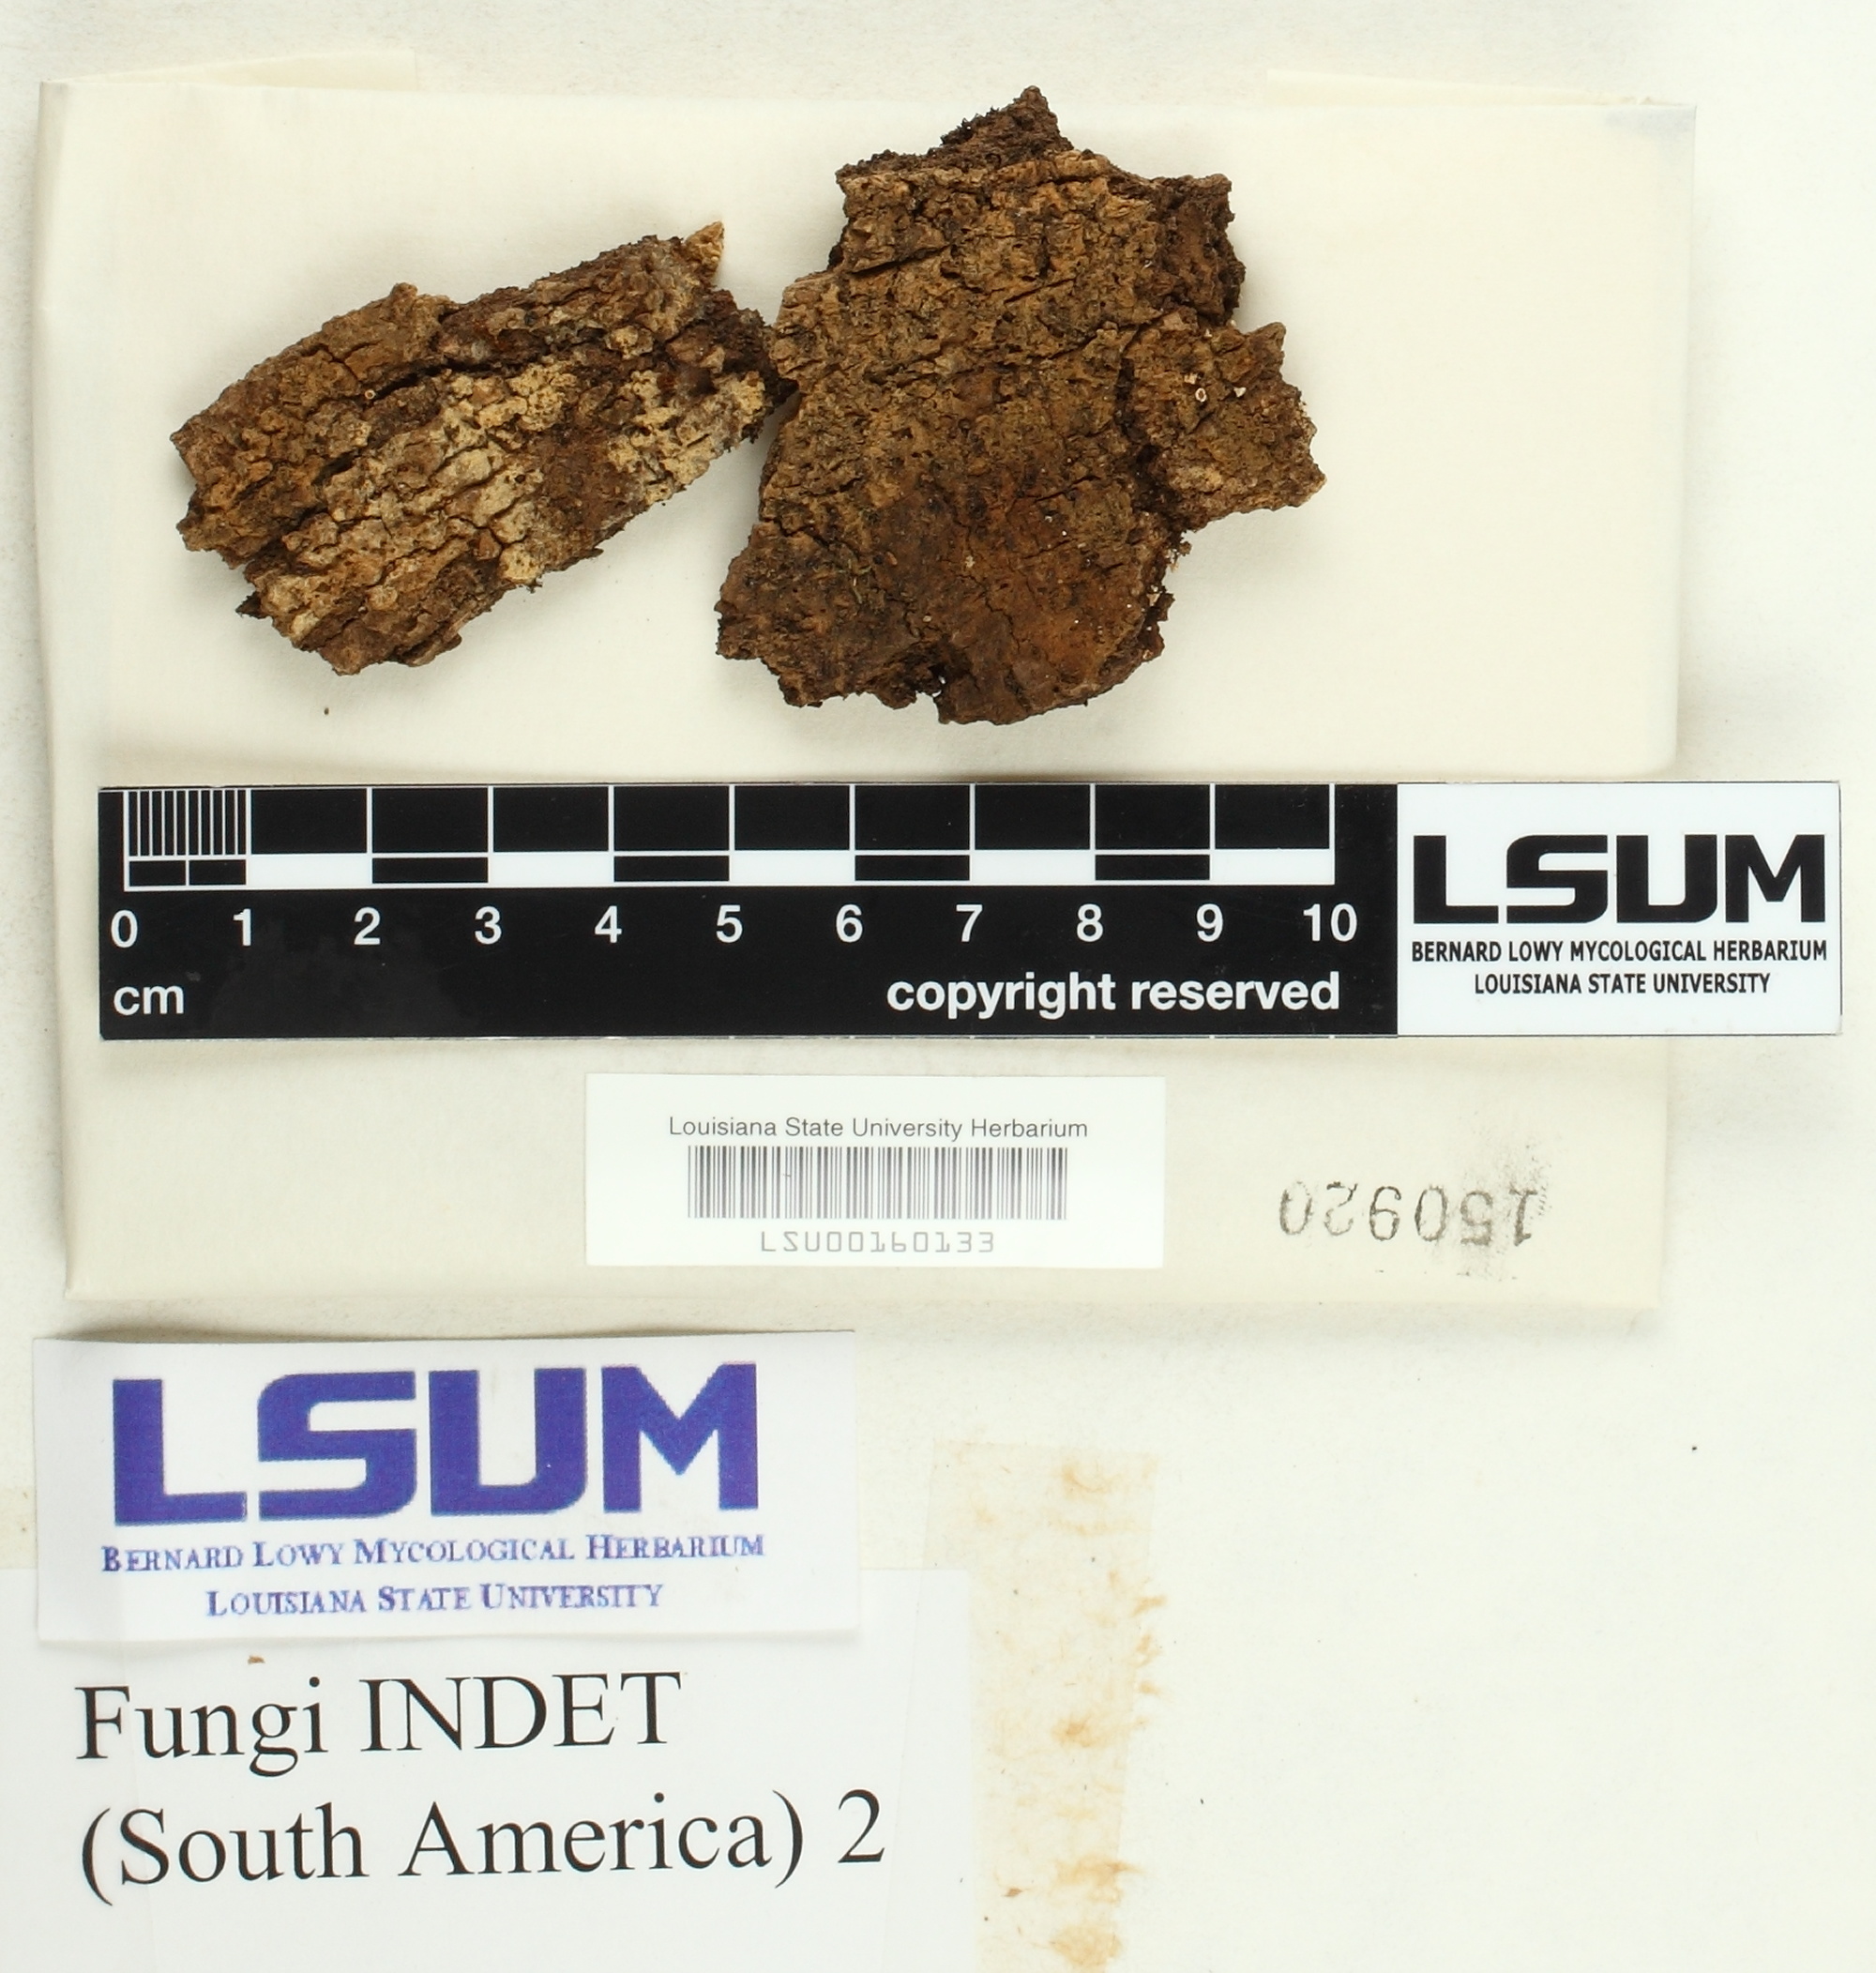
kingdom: Fungi
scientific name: Fungi
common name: Fungi
